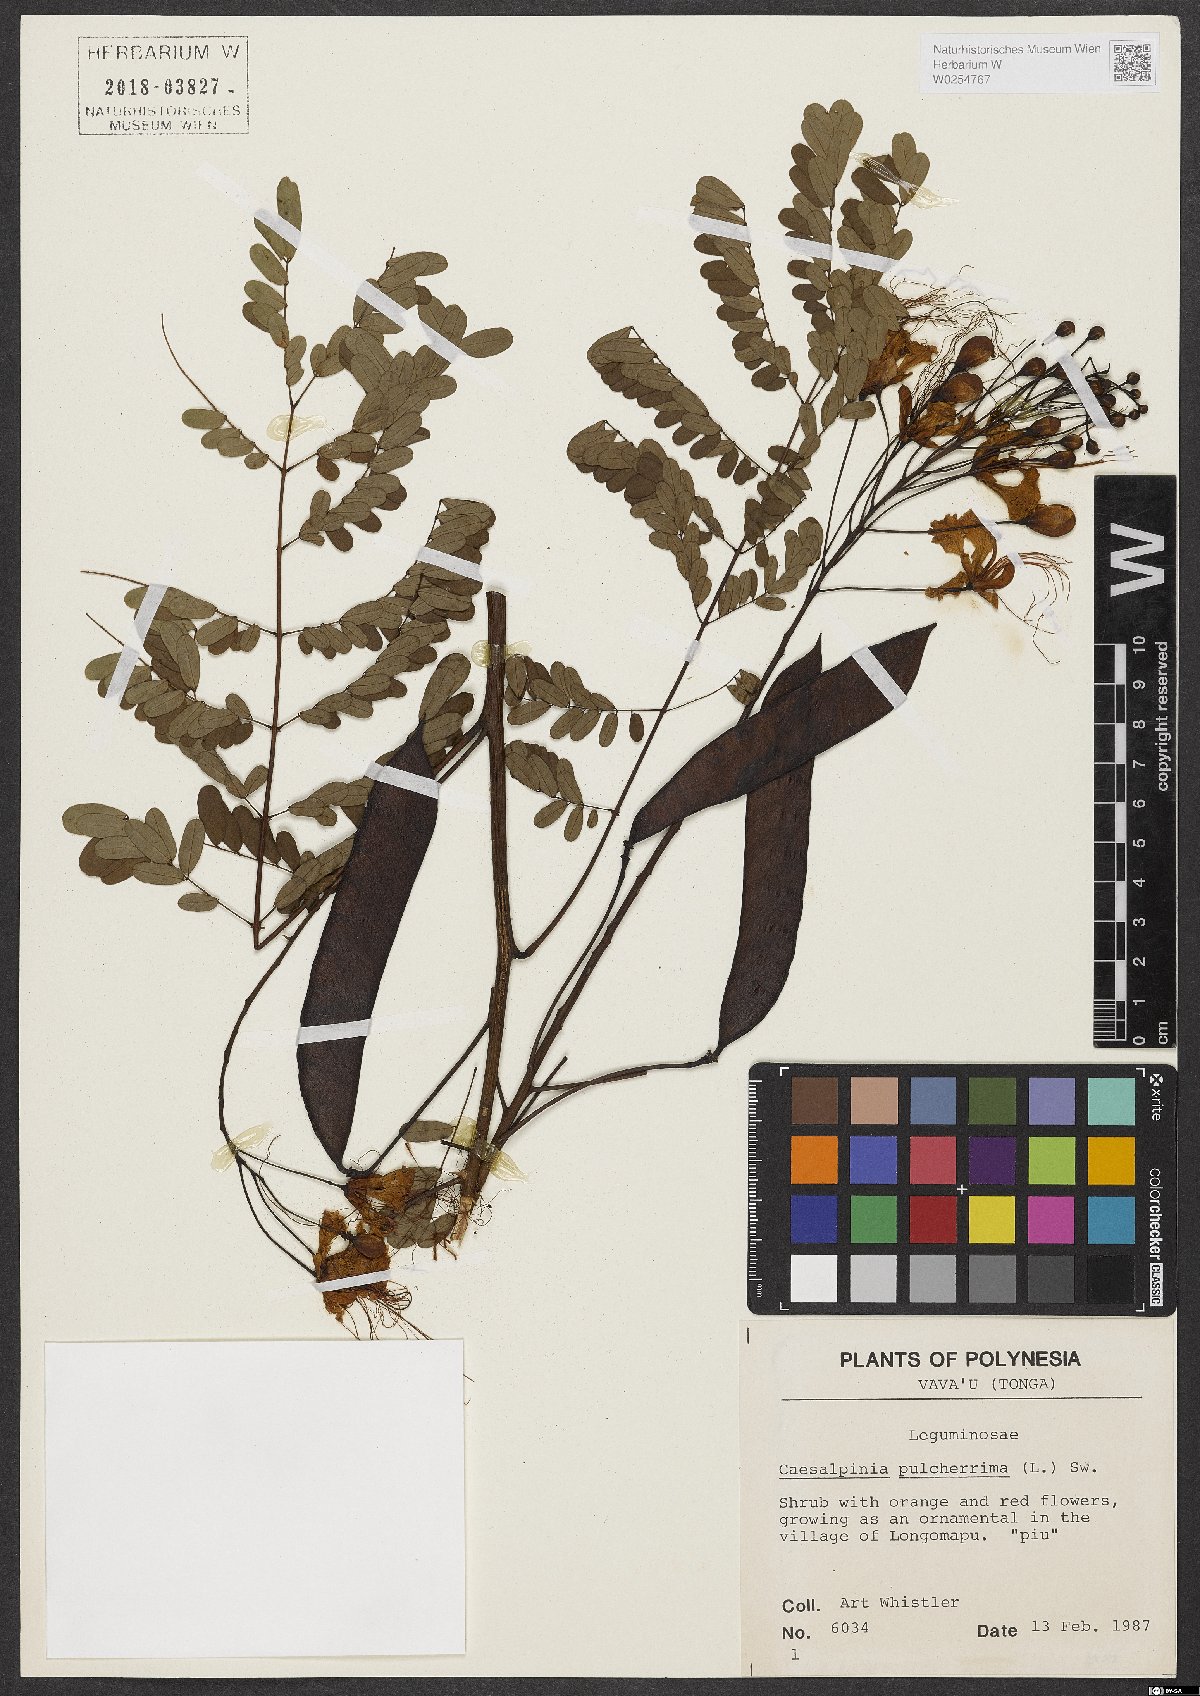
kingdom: Plantae
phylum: Tracheophyta
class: Magnoliopsida
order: Fabales
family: Fabaceae
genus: Caesalpinia
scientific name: Caesalpinia pulcherrima
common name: Pride-of-barbados
